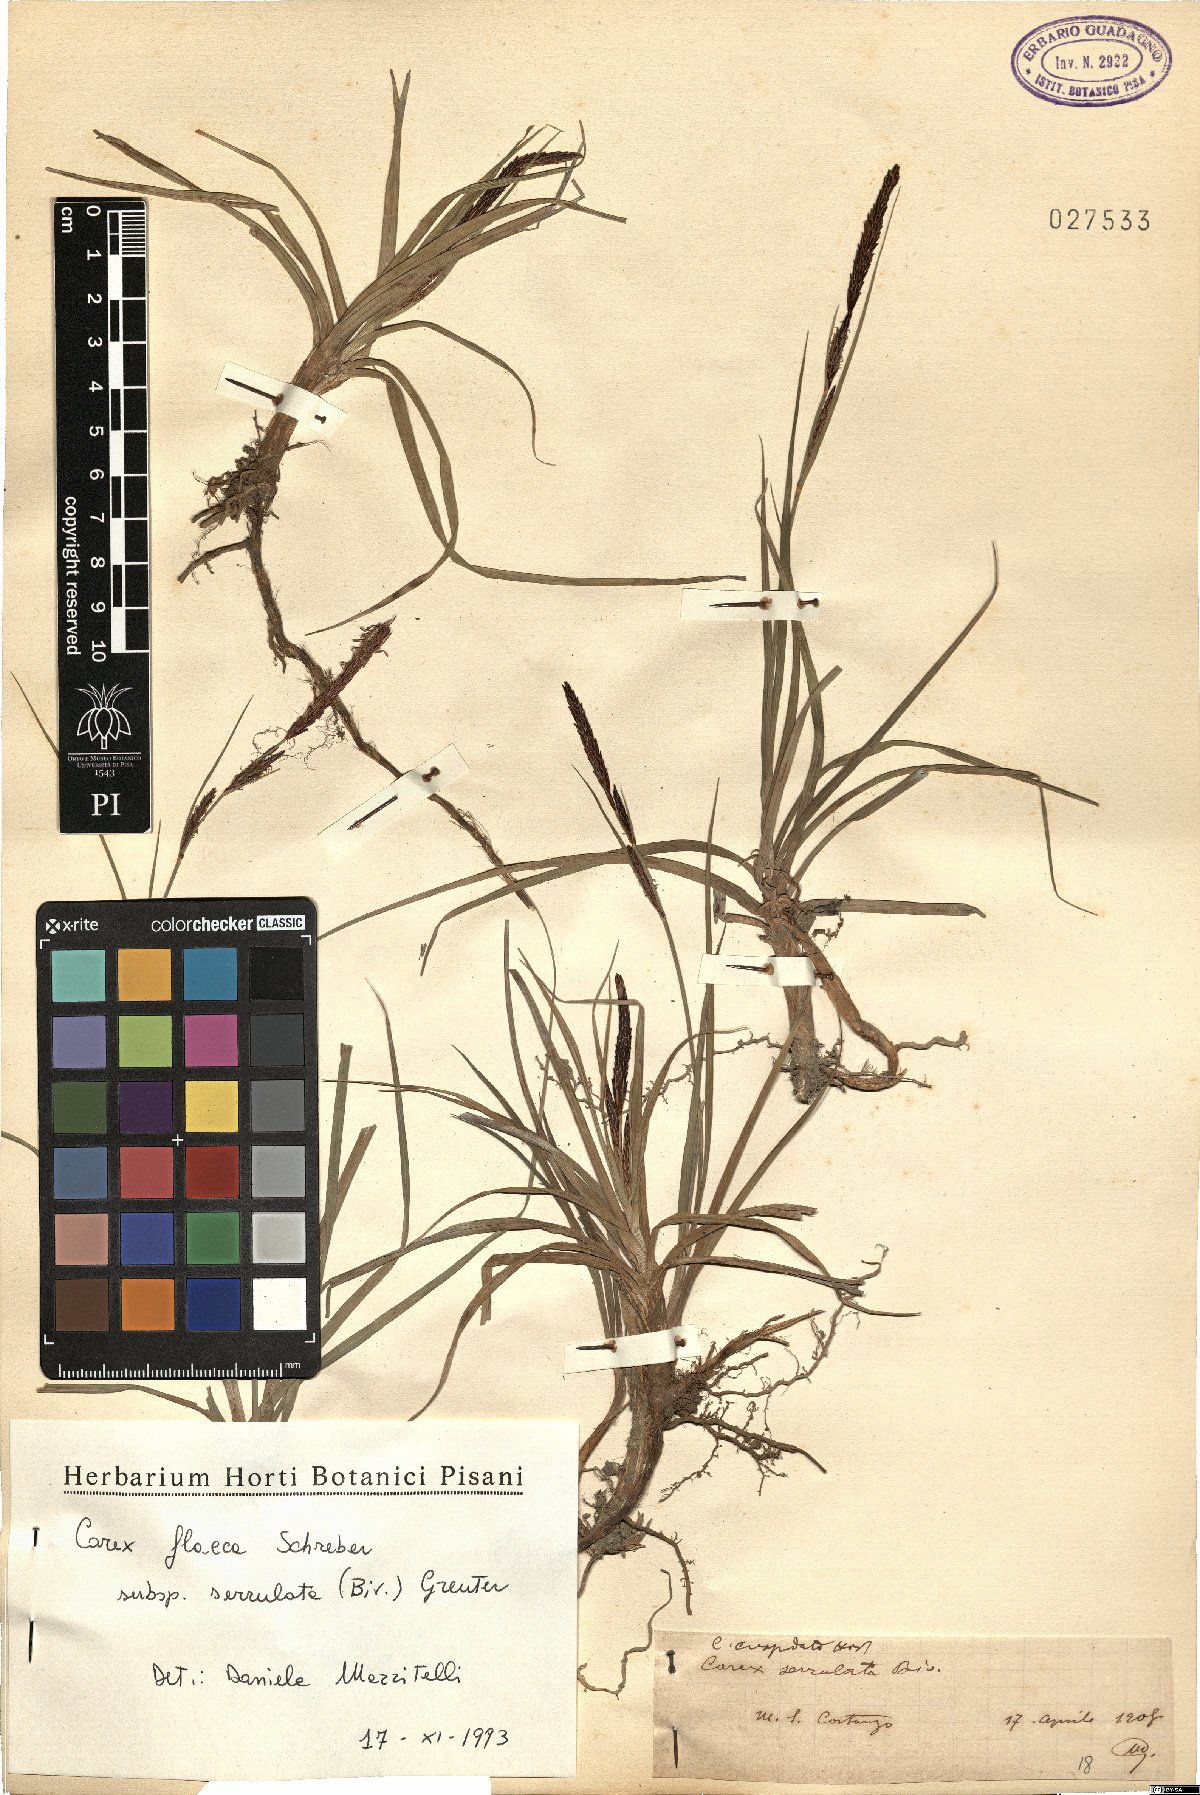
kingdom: Plantae
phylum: Tracheophyta
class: Liliopsida
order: Poales
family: Cyperaceae
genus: Carex
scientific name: Carex flacca
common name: Glaucous sedge
